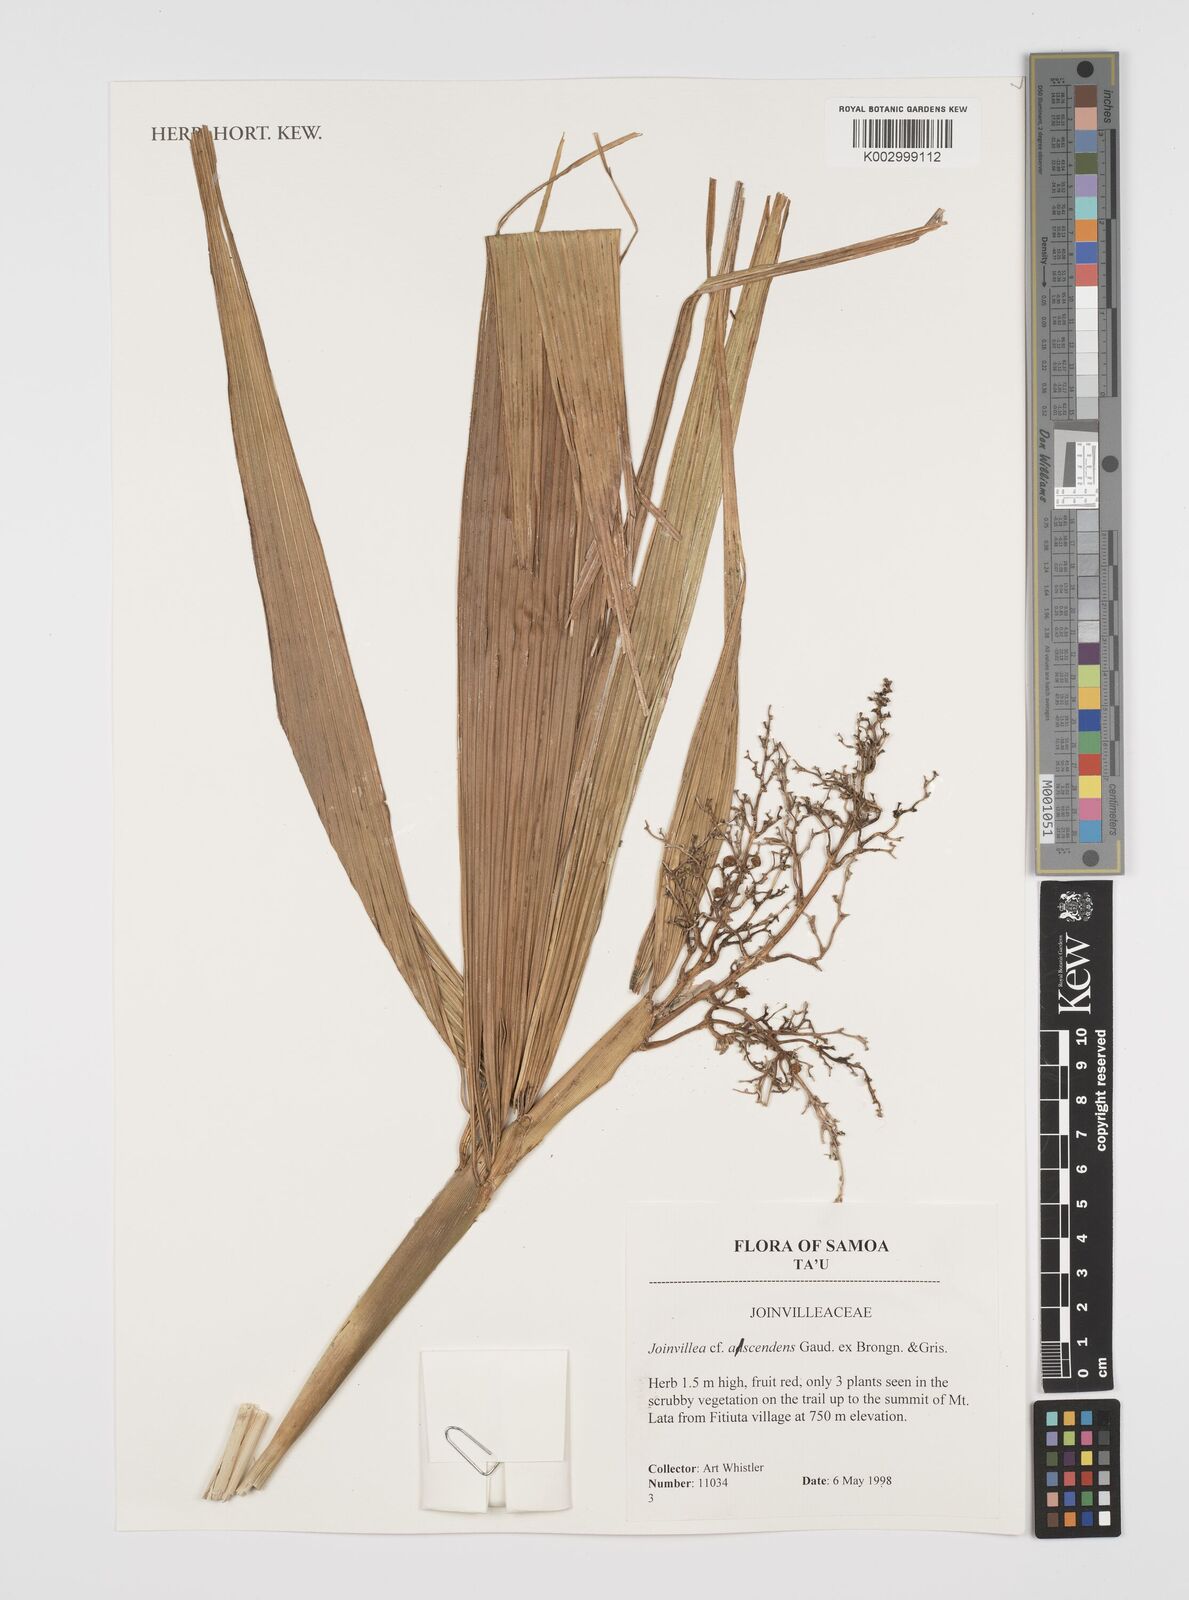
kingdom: Plantae
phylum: Tracheophyta
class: Liliopsida
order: Poales
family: Joinvilleaceae
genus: Joinvillea
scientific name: Joinvillea ascendens
